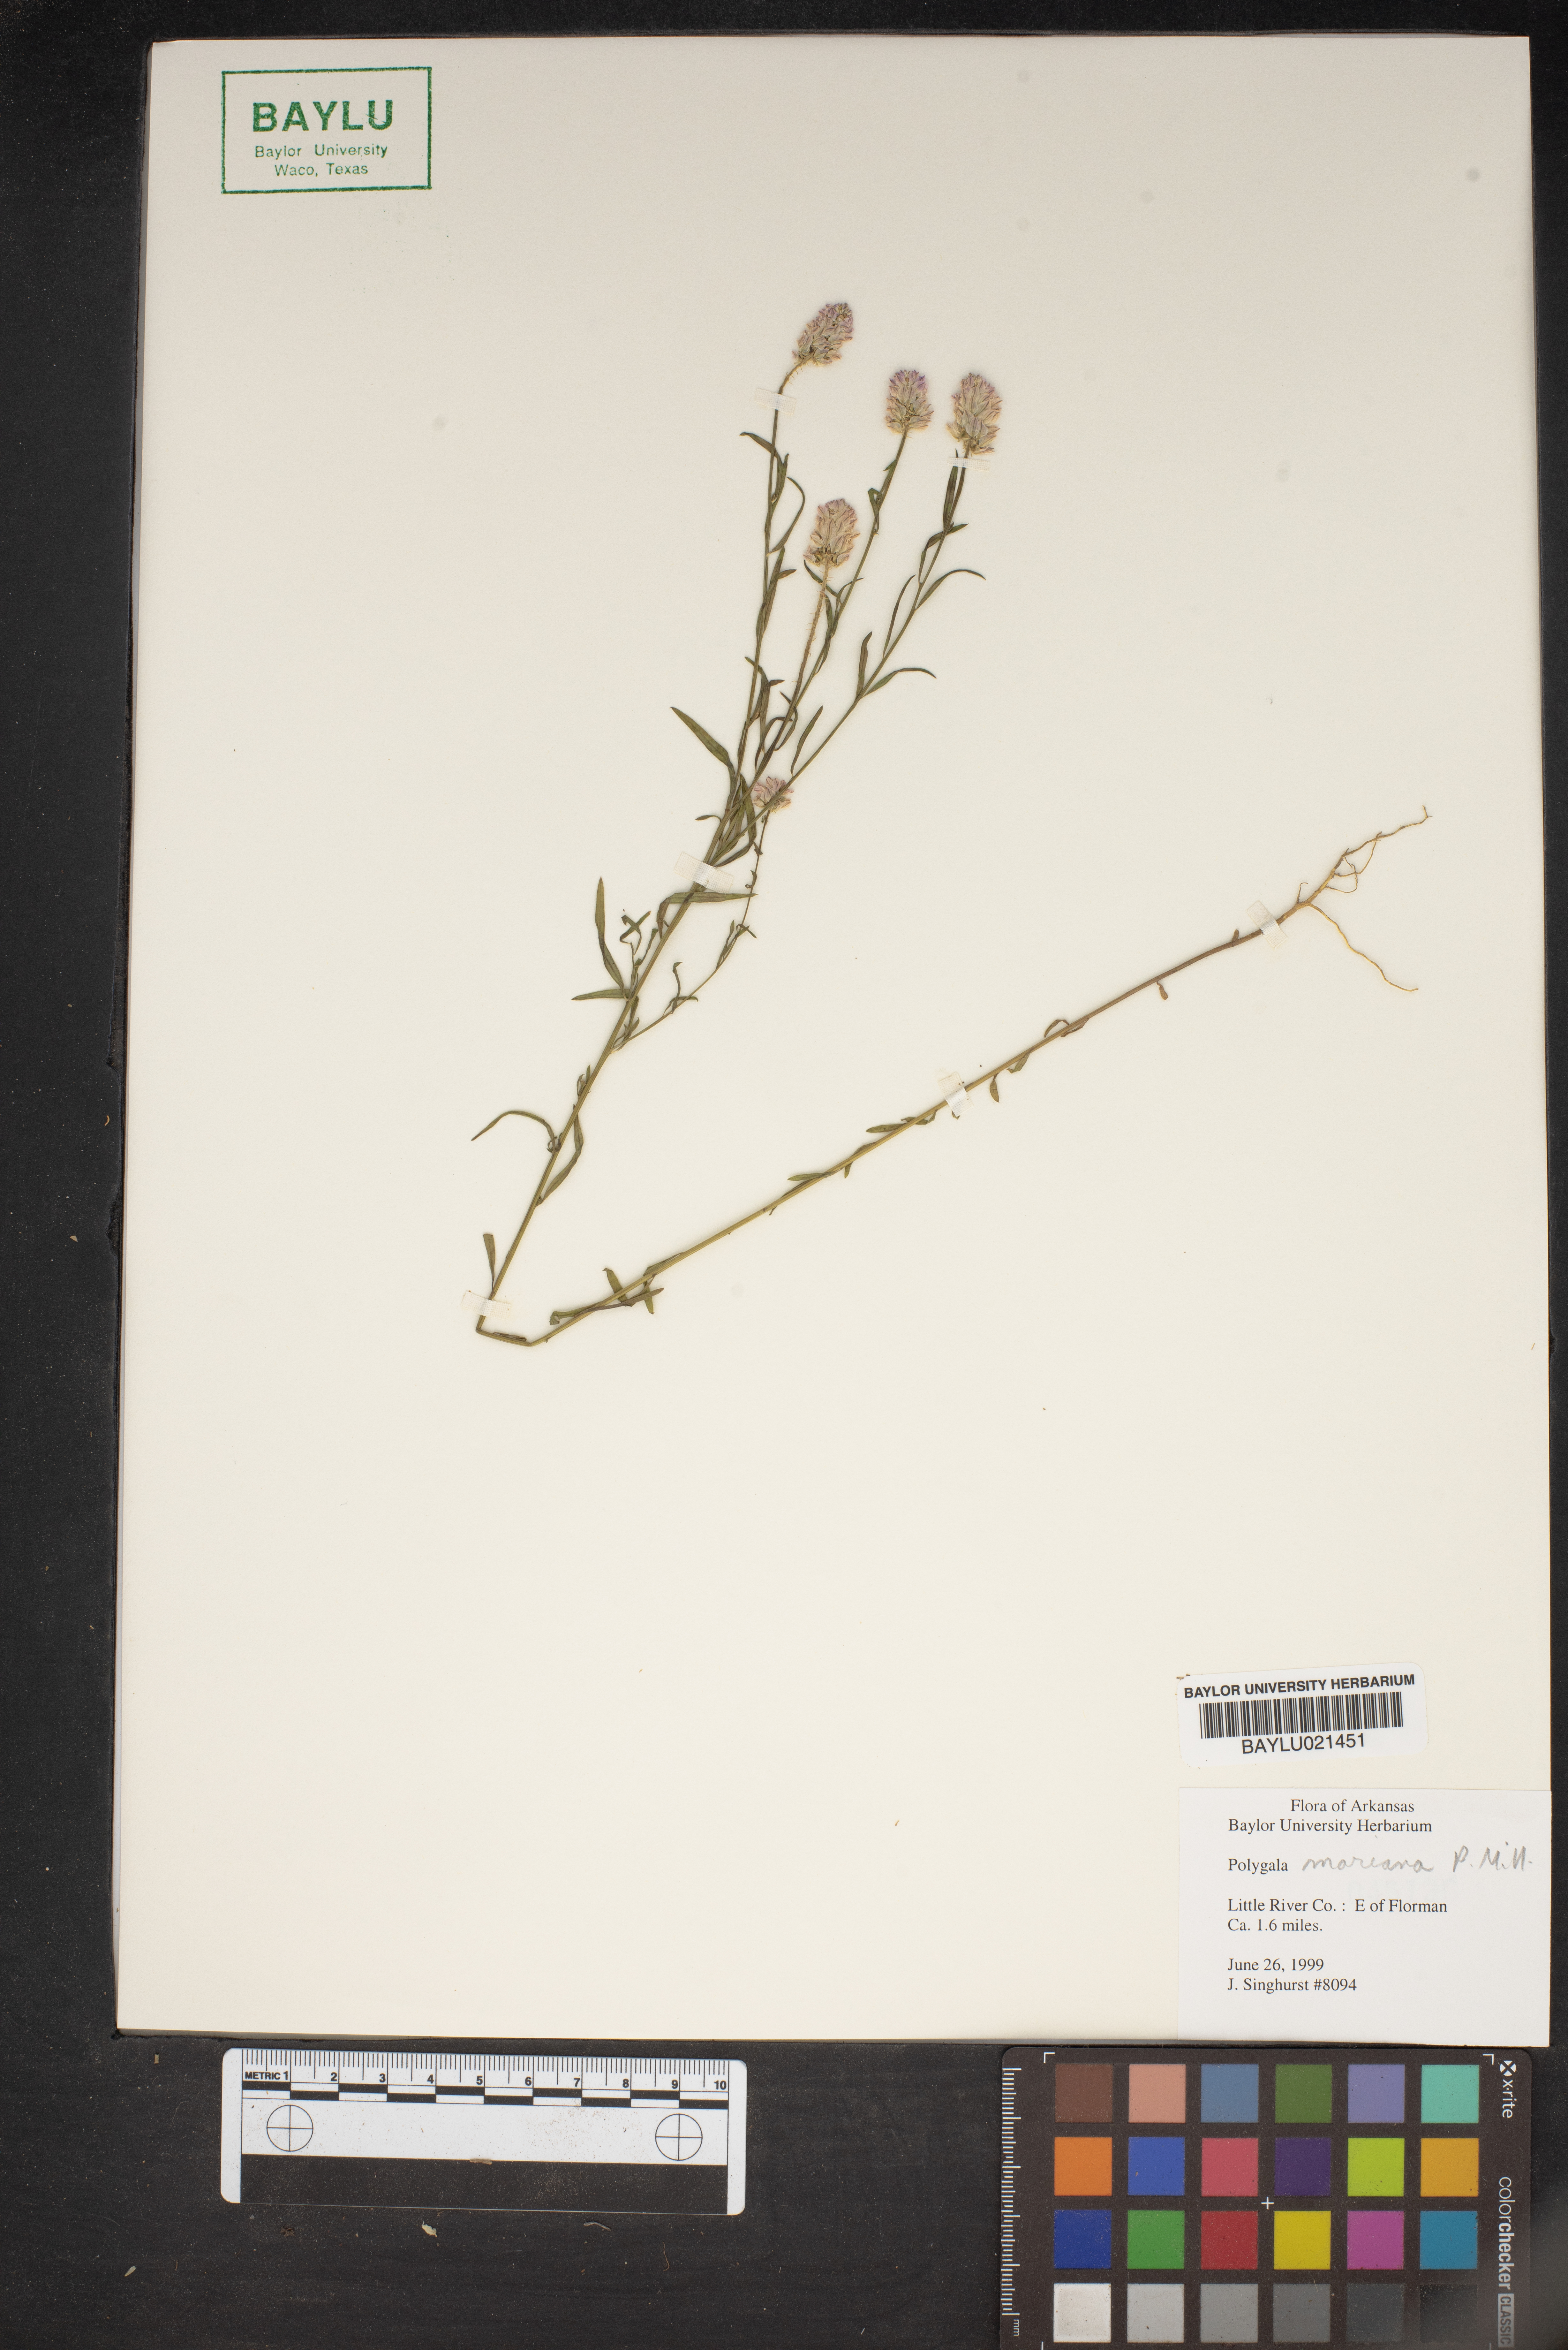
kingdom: Plantae
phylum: Tracheophyta
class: Magnoliopsida
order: Fabales
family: Polygalaceae
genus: Polygala
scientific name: Polygala mariana
